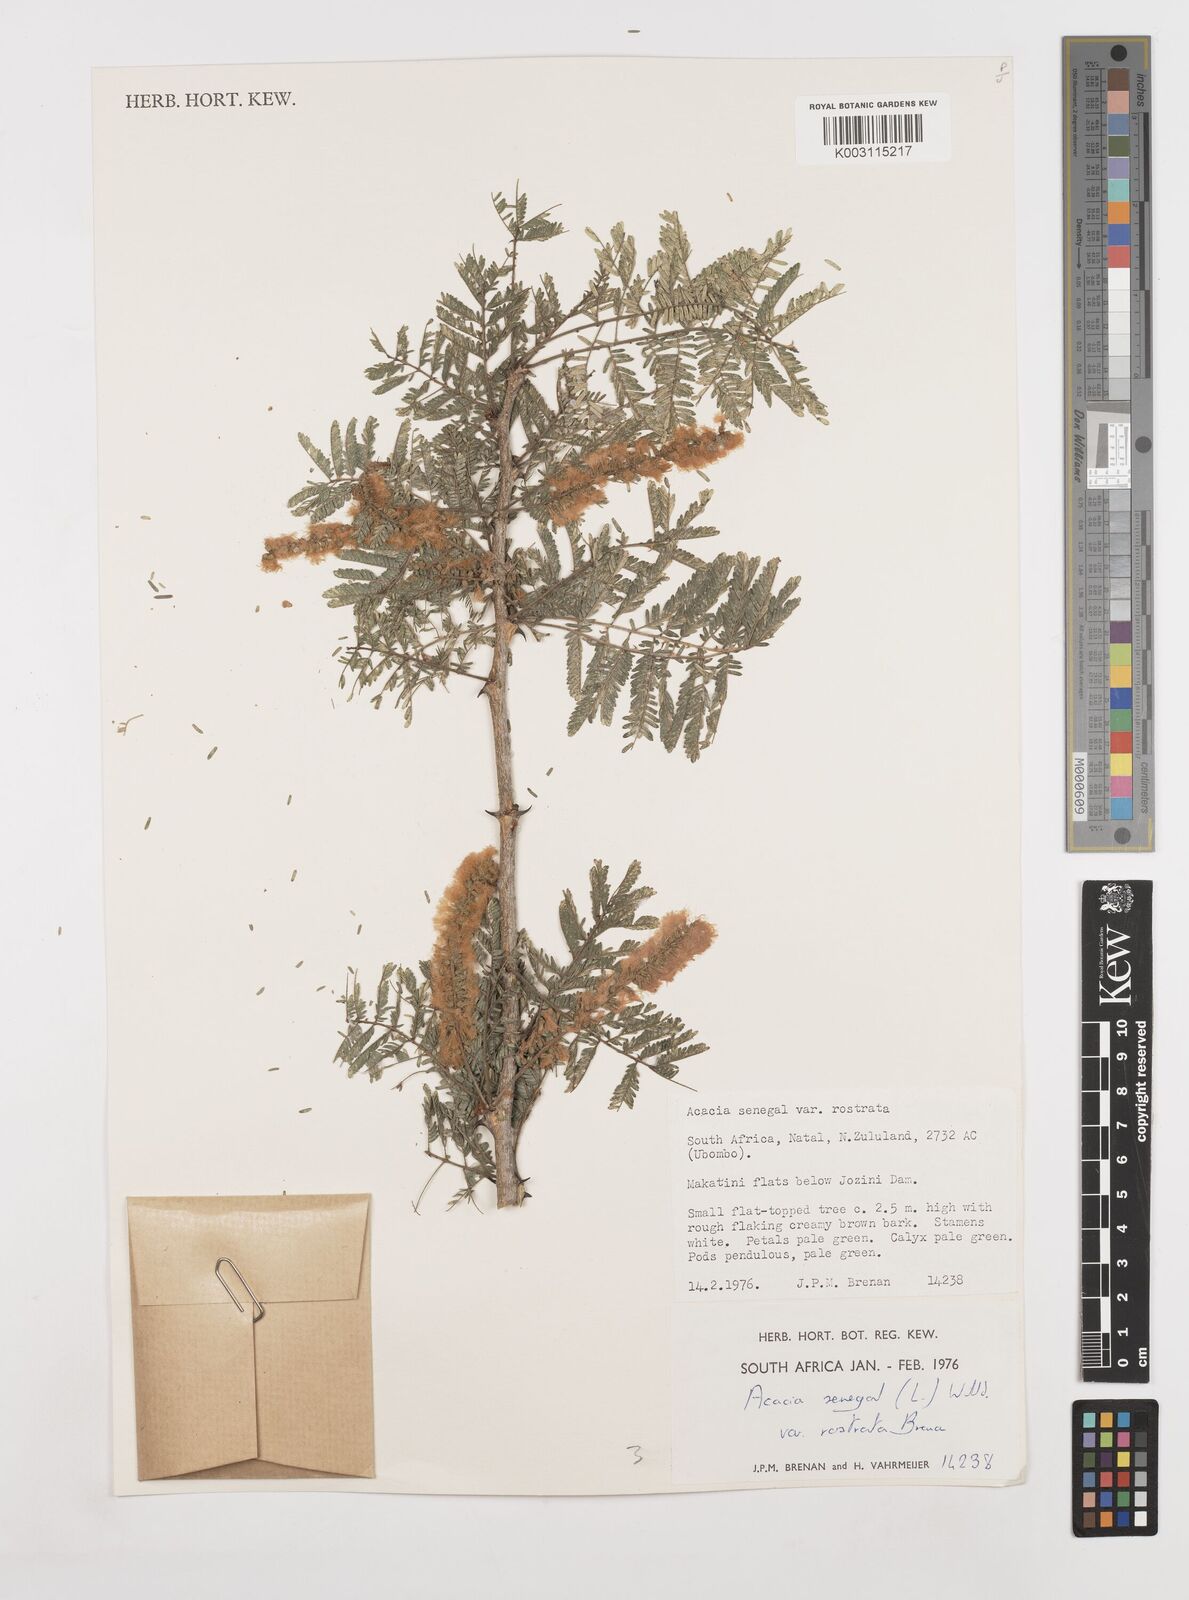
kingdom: Plantae
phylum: Tracheophyta
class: Magnoliopsida
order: Fabales
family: Fabaceae
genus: Senegalia
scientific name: Senegalia senegal
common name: Senegal-gum
